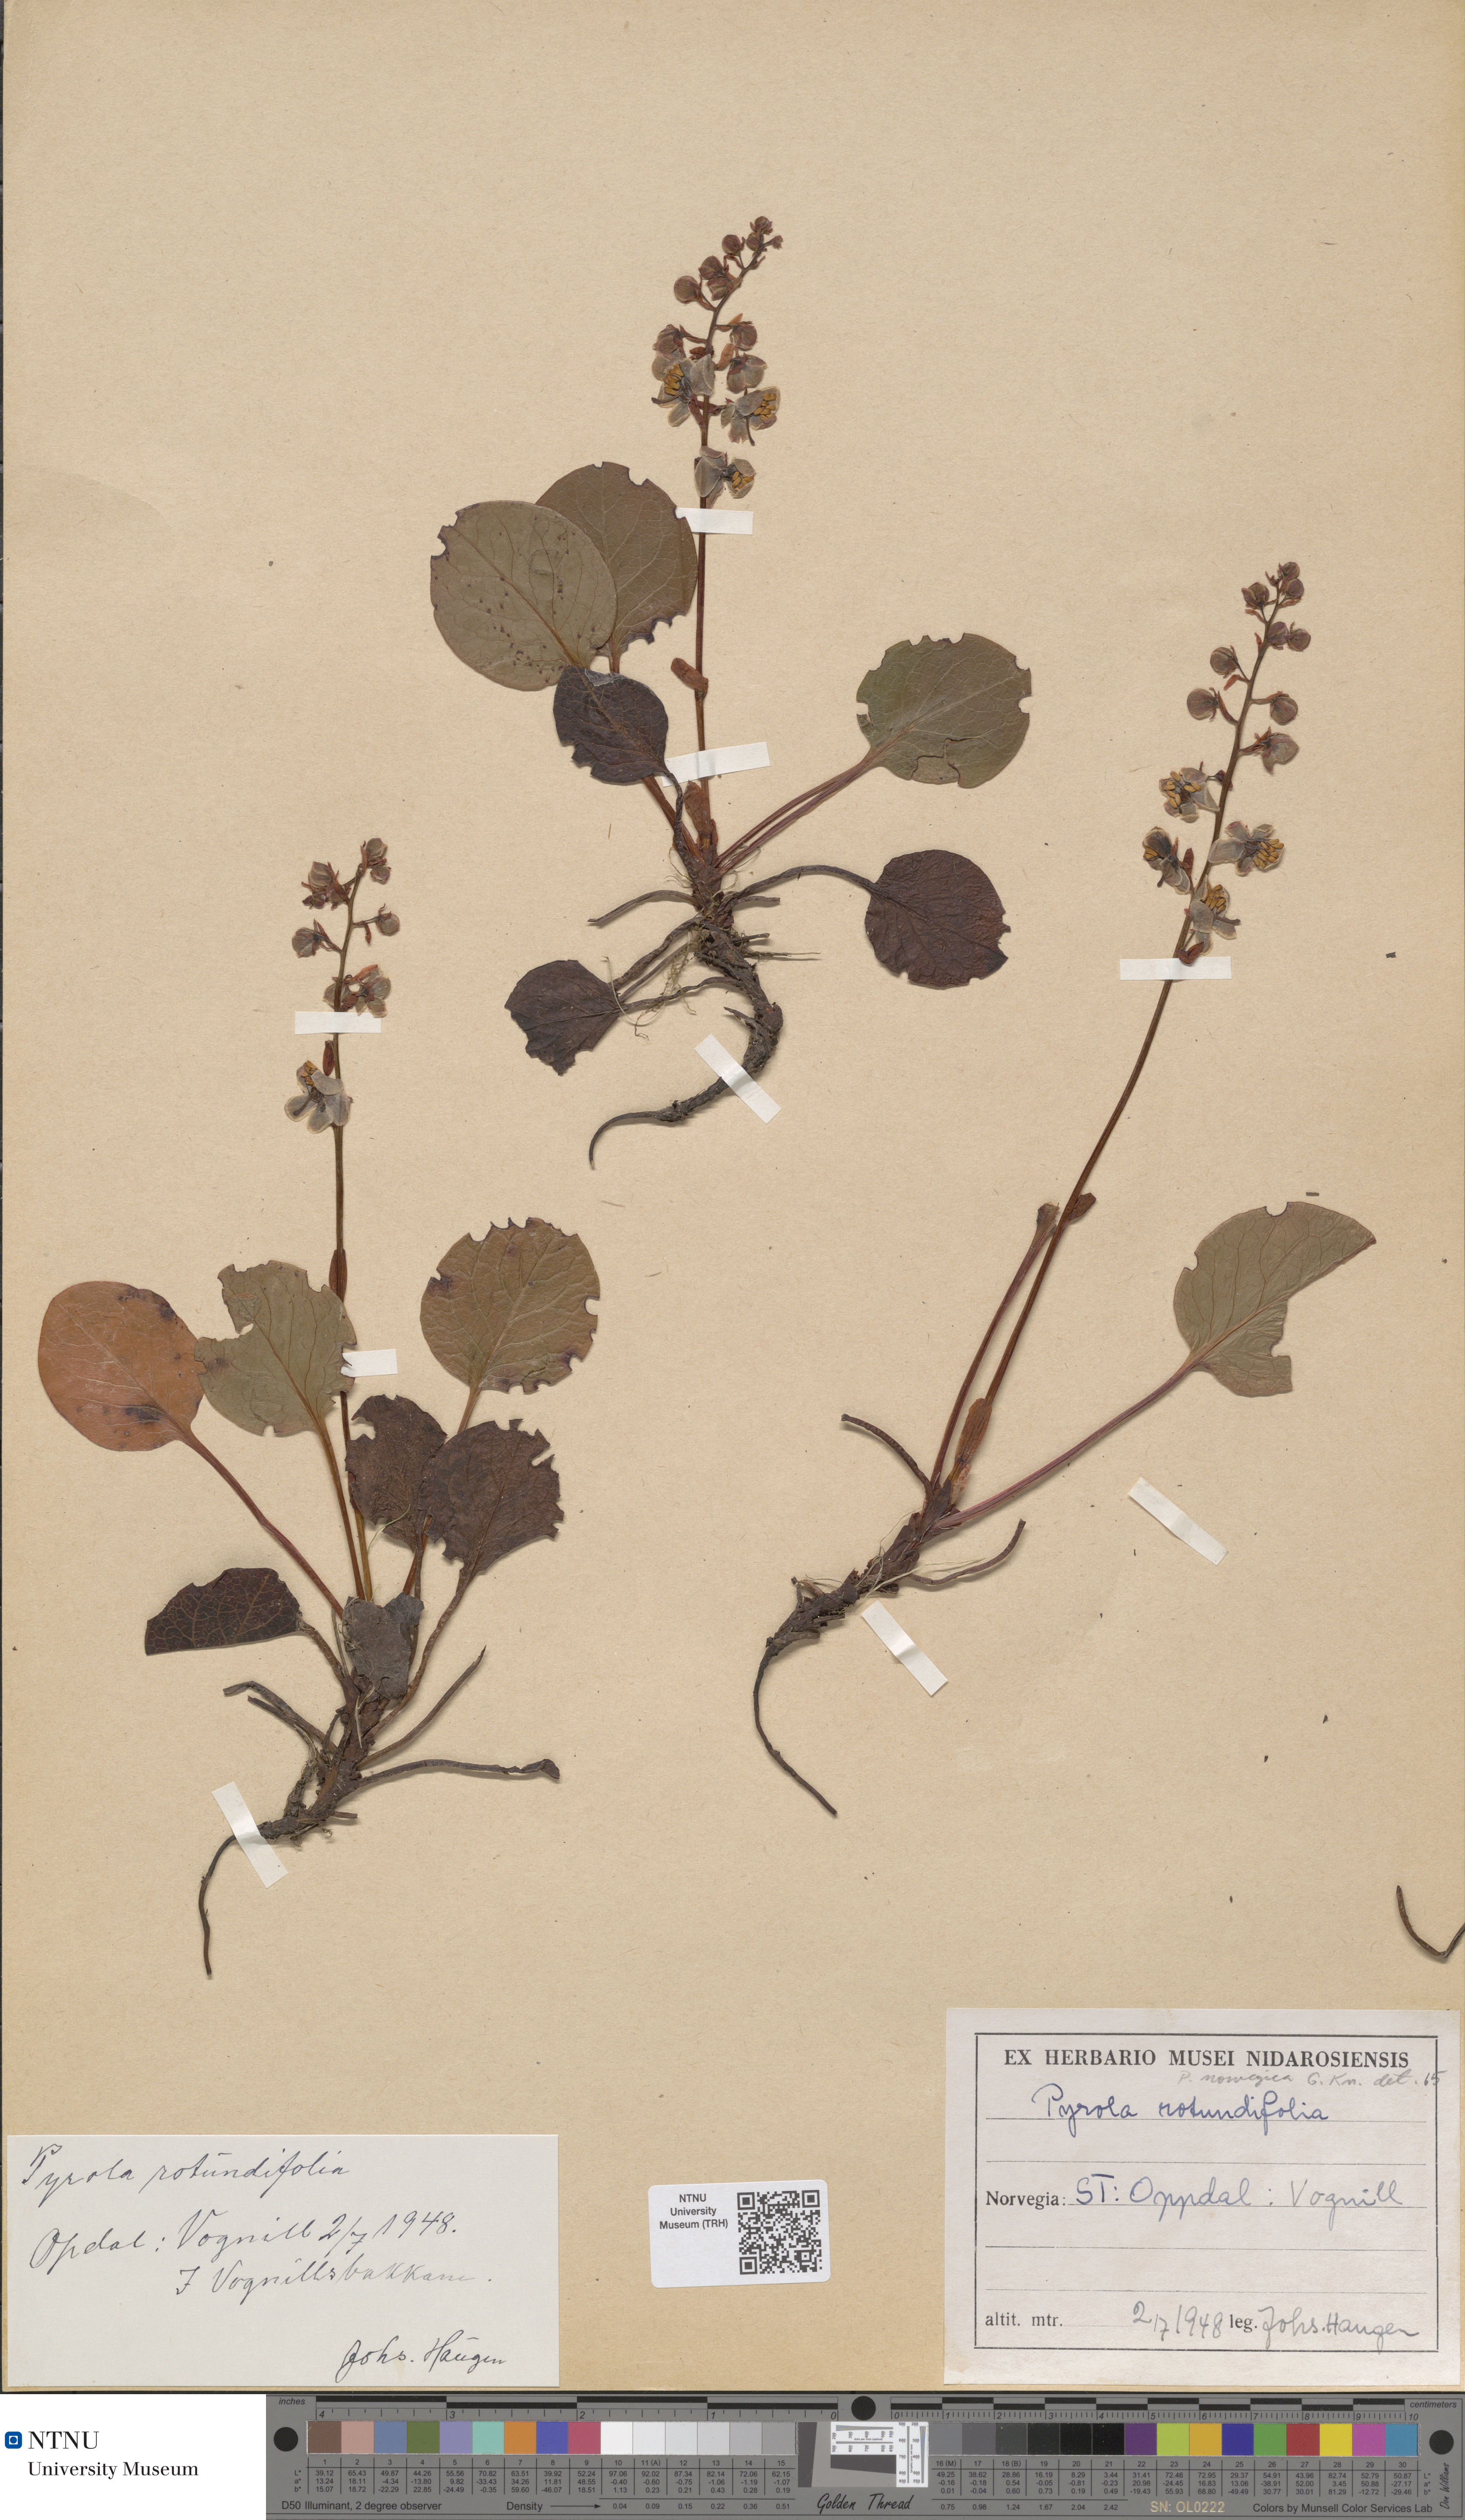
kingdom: Plantae
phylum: Tracheophyta
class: Magnoliopsida
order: Ericales
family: Ericaceae
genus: Pyrola
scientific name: Pyrola rotundifolia
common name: Round-leaved wintergreen
